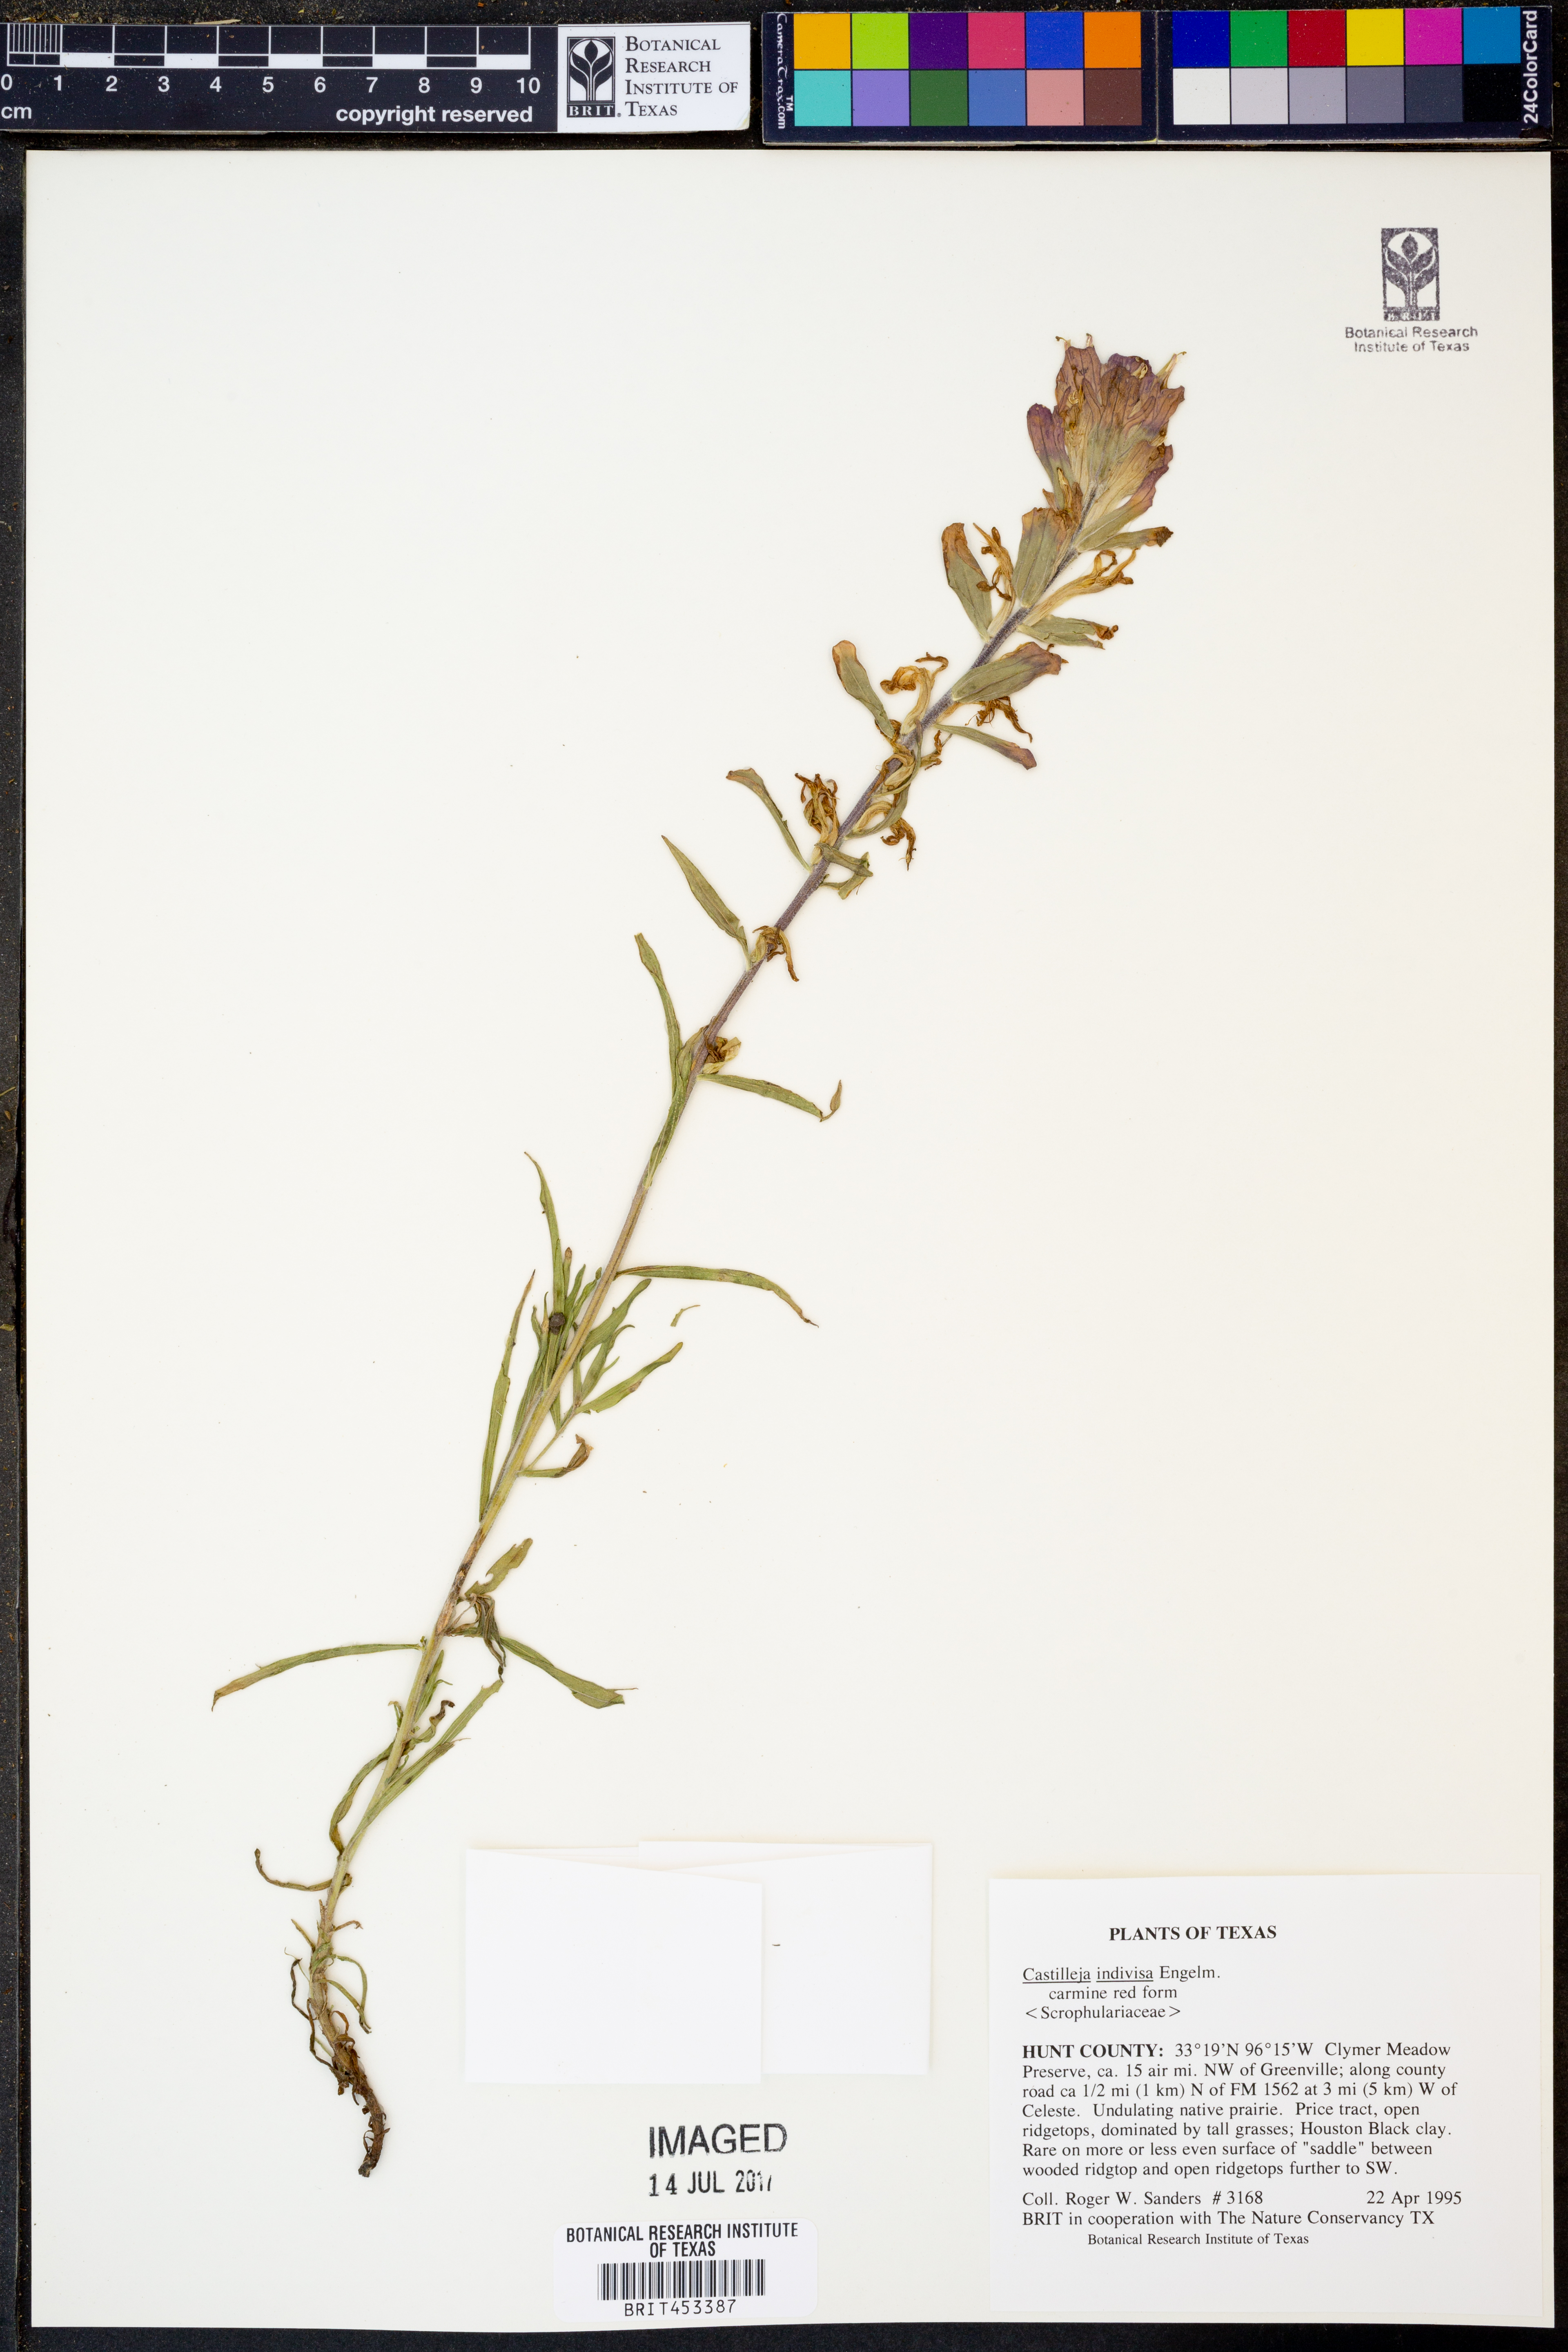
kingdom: Plantae
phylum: Tracheophyta
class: Magnoliopsida
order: Lamiales
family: Orobanchaceae
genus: Castilleja
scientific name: Castilleja indivisa
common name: Texas paintbrush
